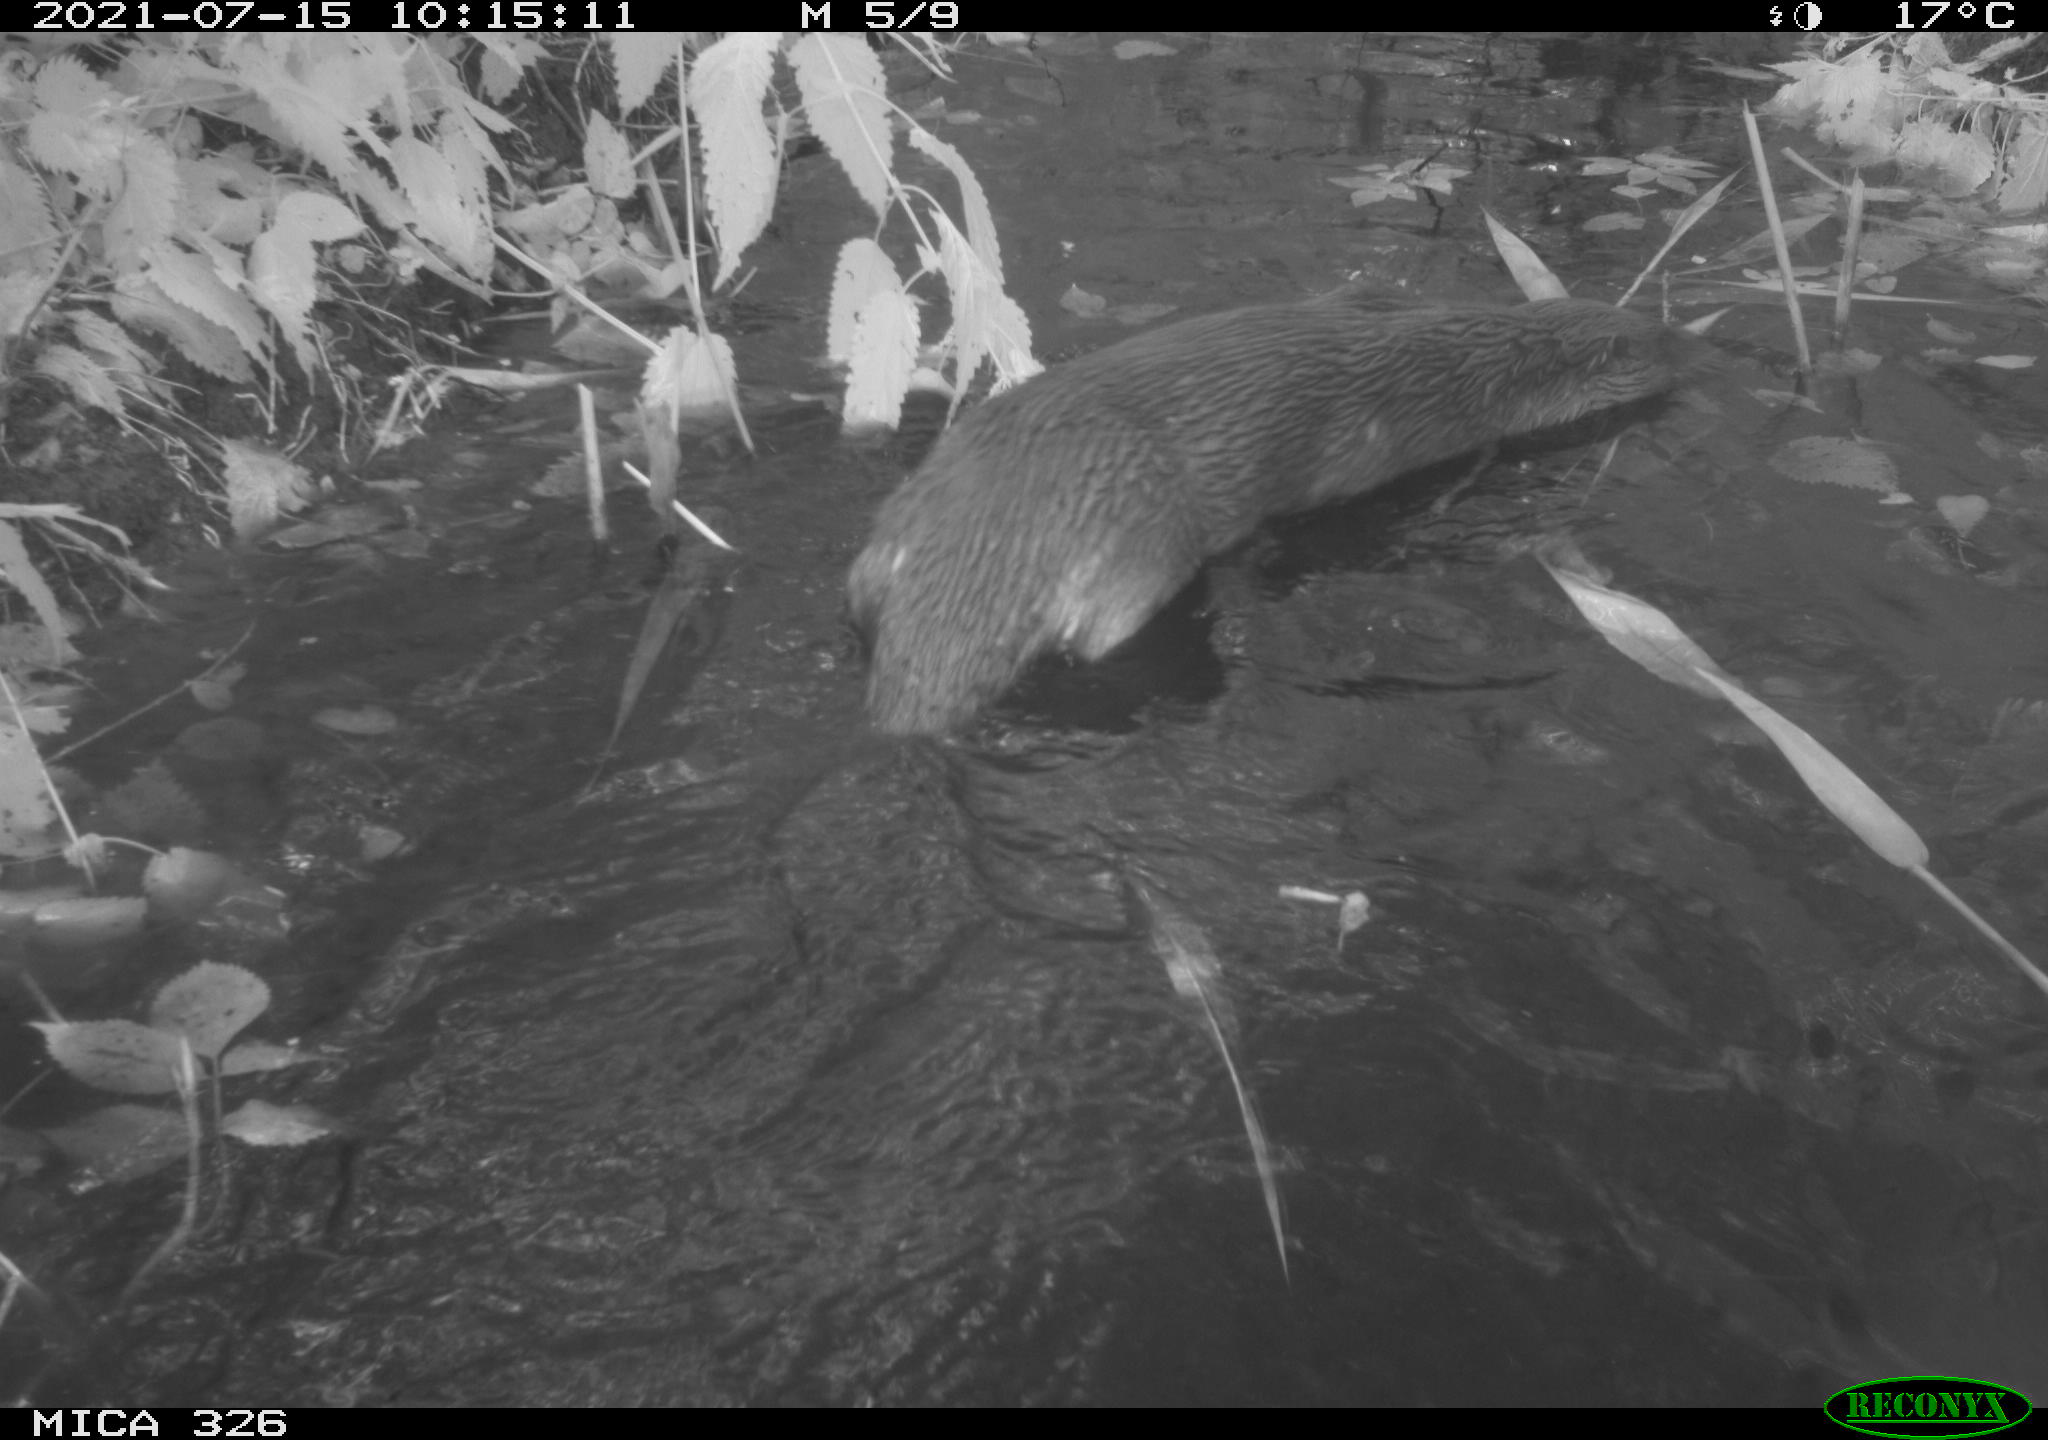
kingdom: Animalia
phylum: Chordata
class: Mammalia
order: Carnivora
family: Mustelidae
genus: Lutra
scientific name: Lutra lutra
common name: European otter
